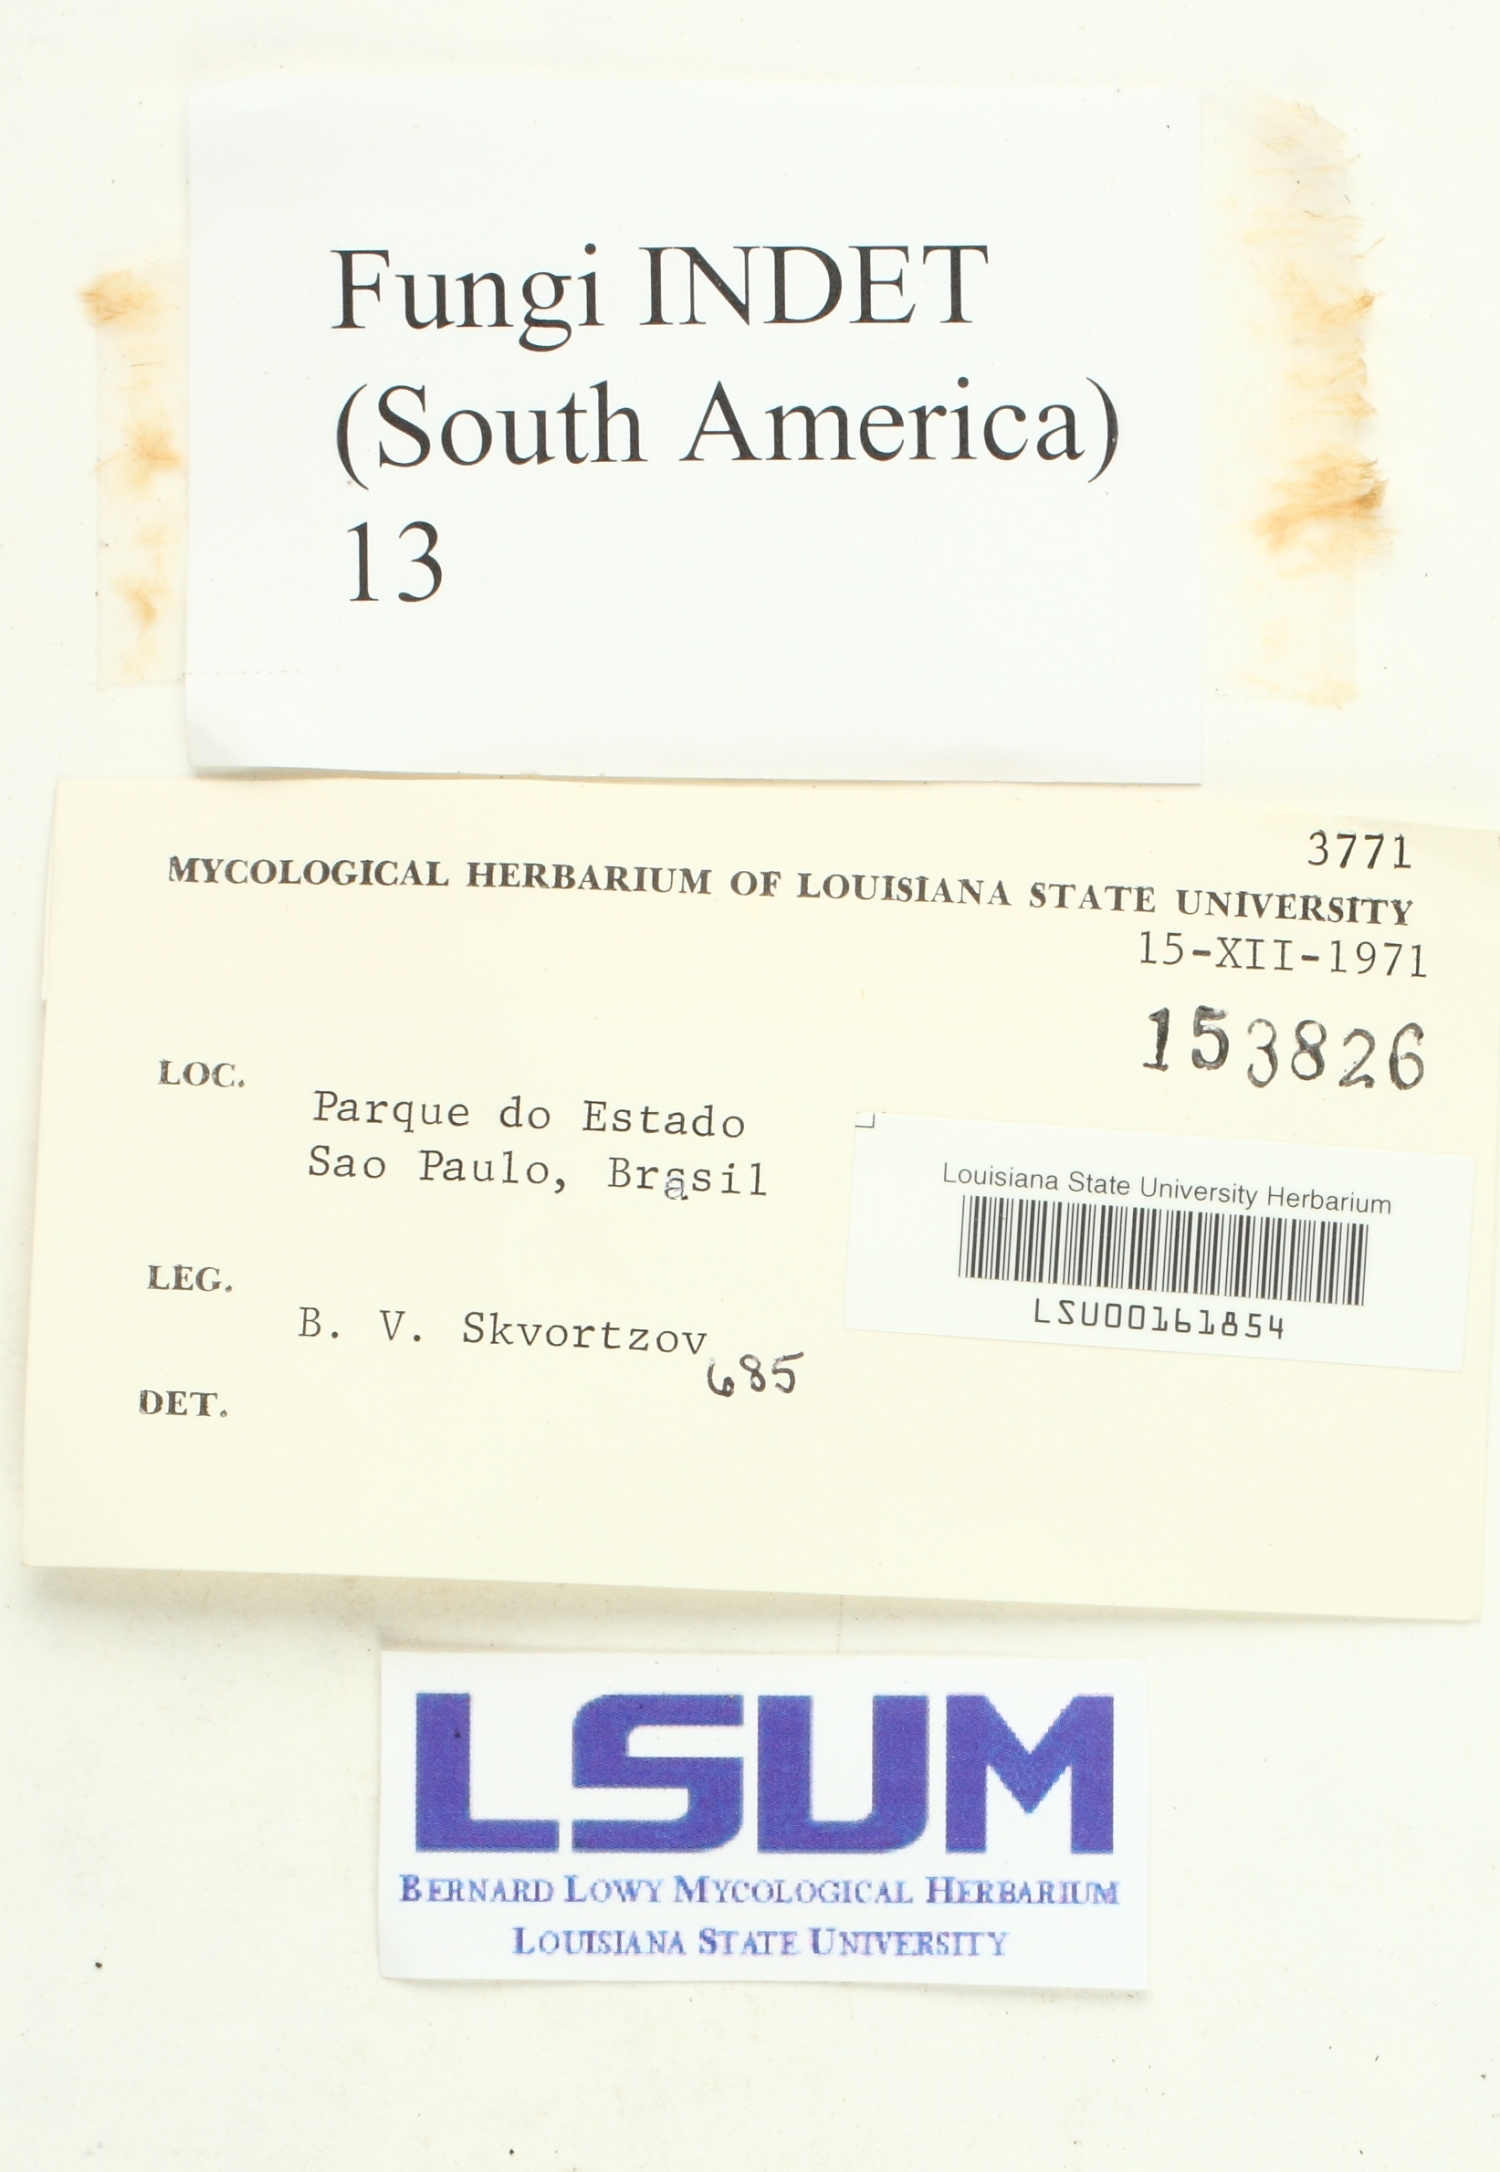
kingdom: Fungi
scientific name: Fungi
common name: Fungi
